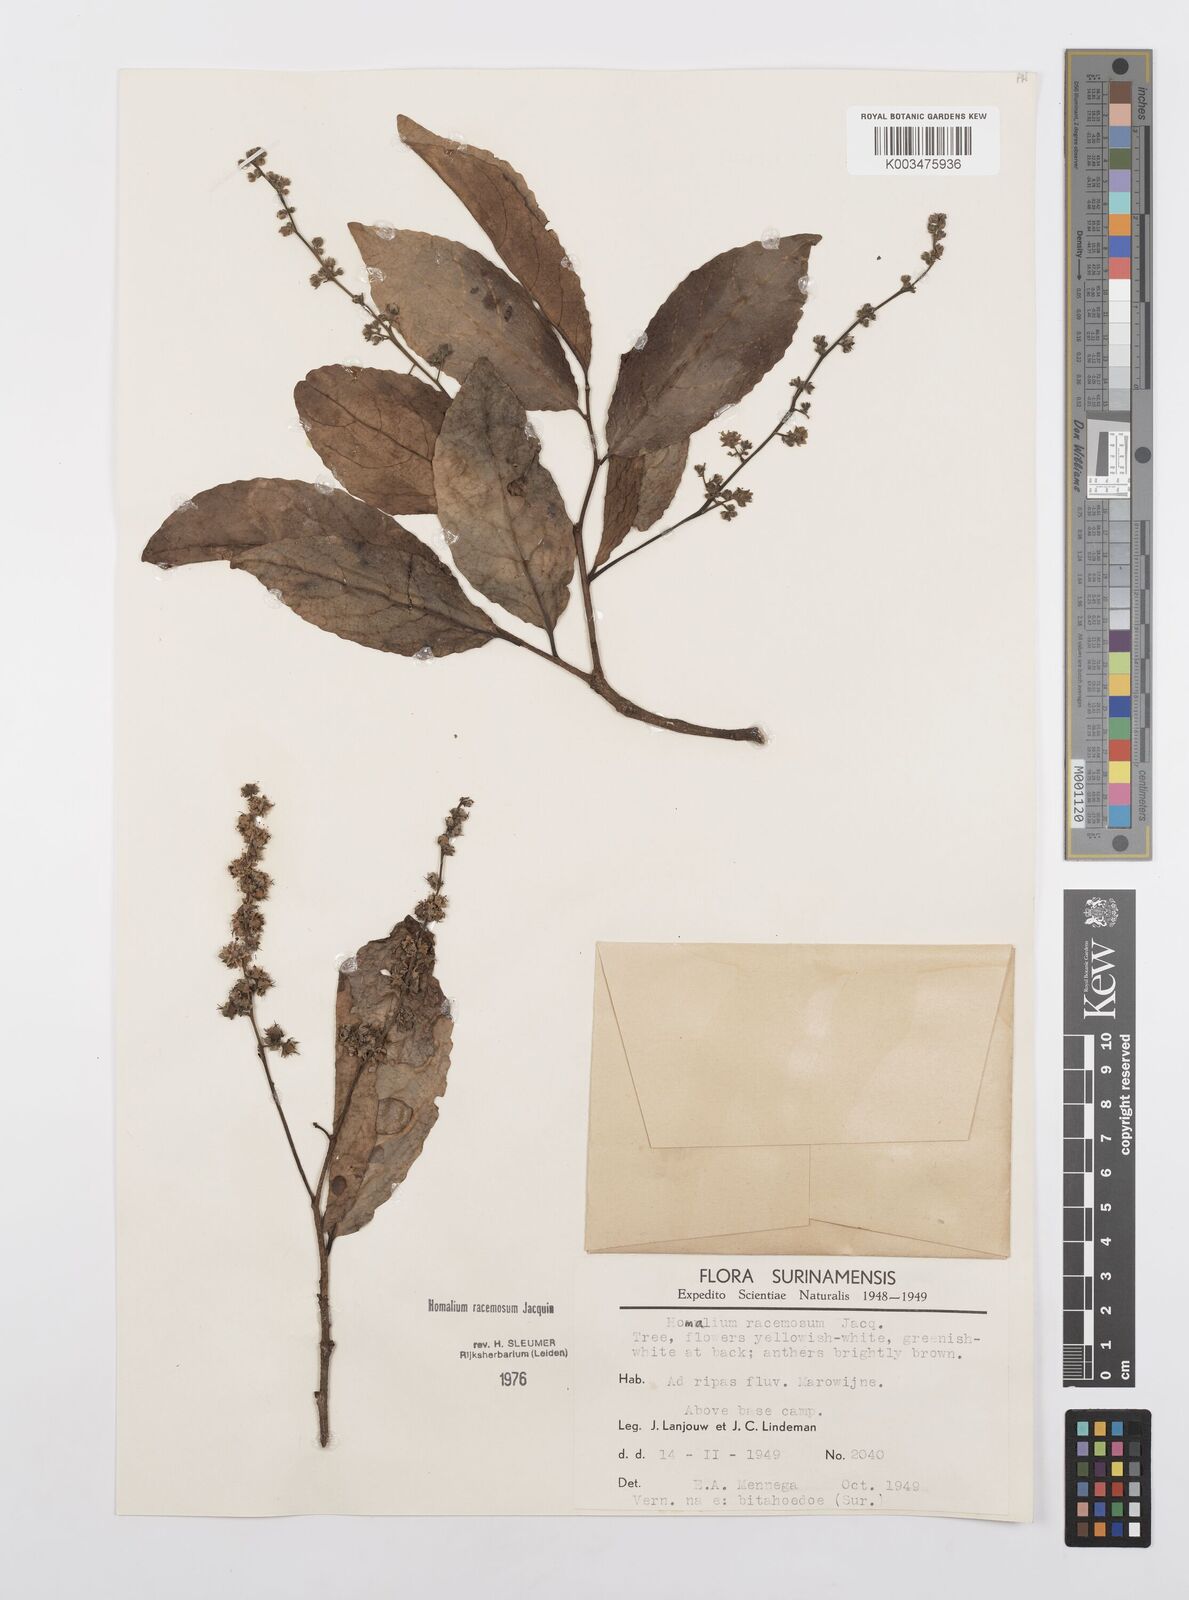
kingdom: Plantae
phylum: Tracheophyta
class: Magnoliopsida
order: Malpighiales
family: Salicaceae
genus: Homalium
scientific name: Homalium racemosum
